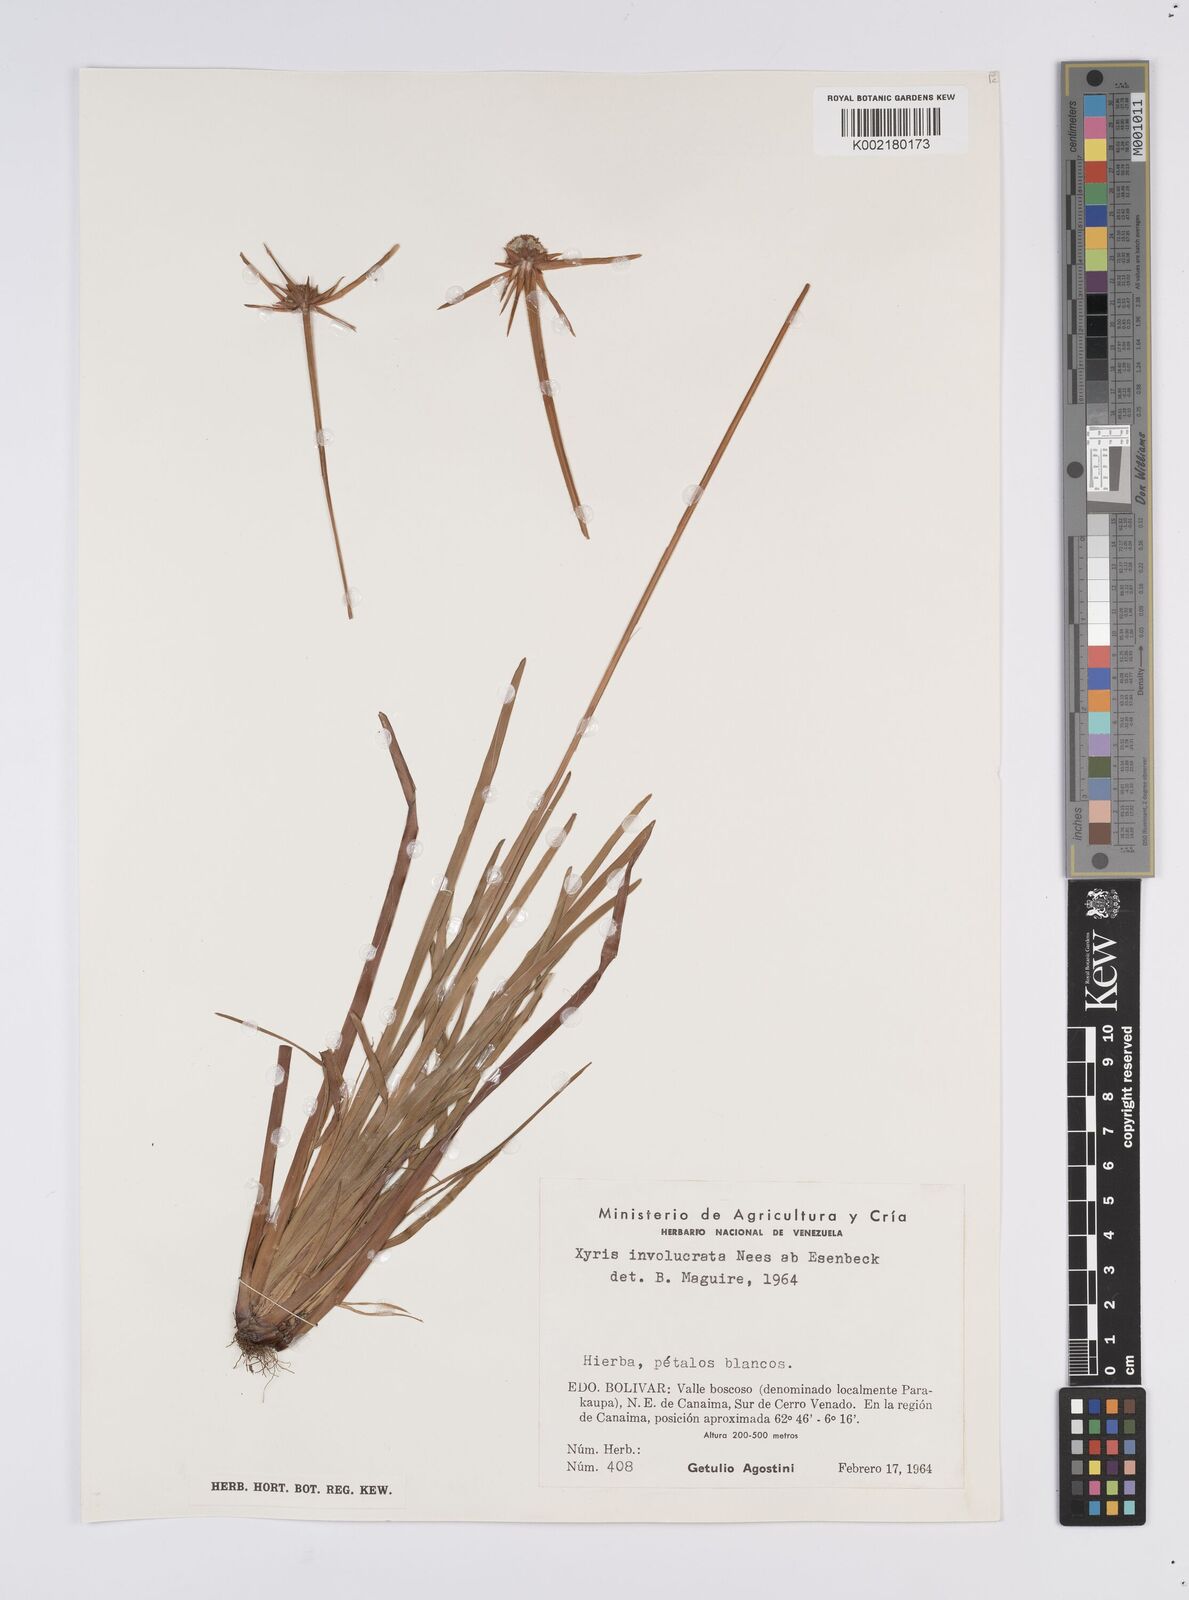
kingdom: Plantae
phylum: Tracheophyta
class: Liliopsida
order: Poales
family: Xyridaceae
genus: Xyris
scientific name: Xyris involucrata
